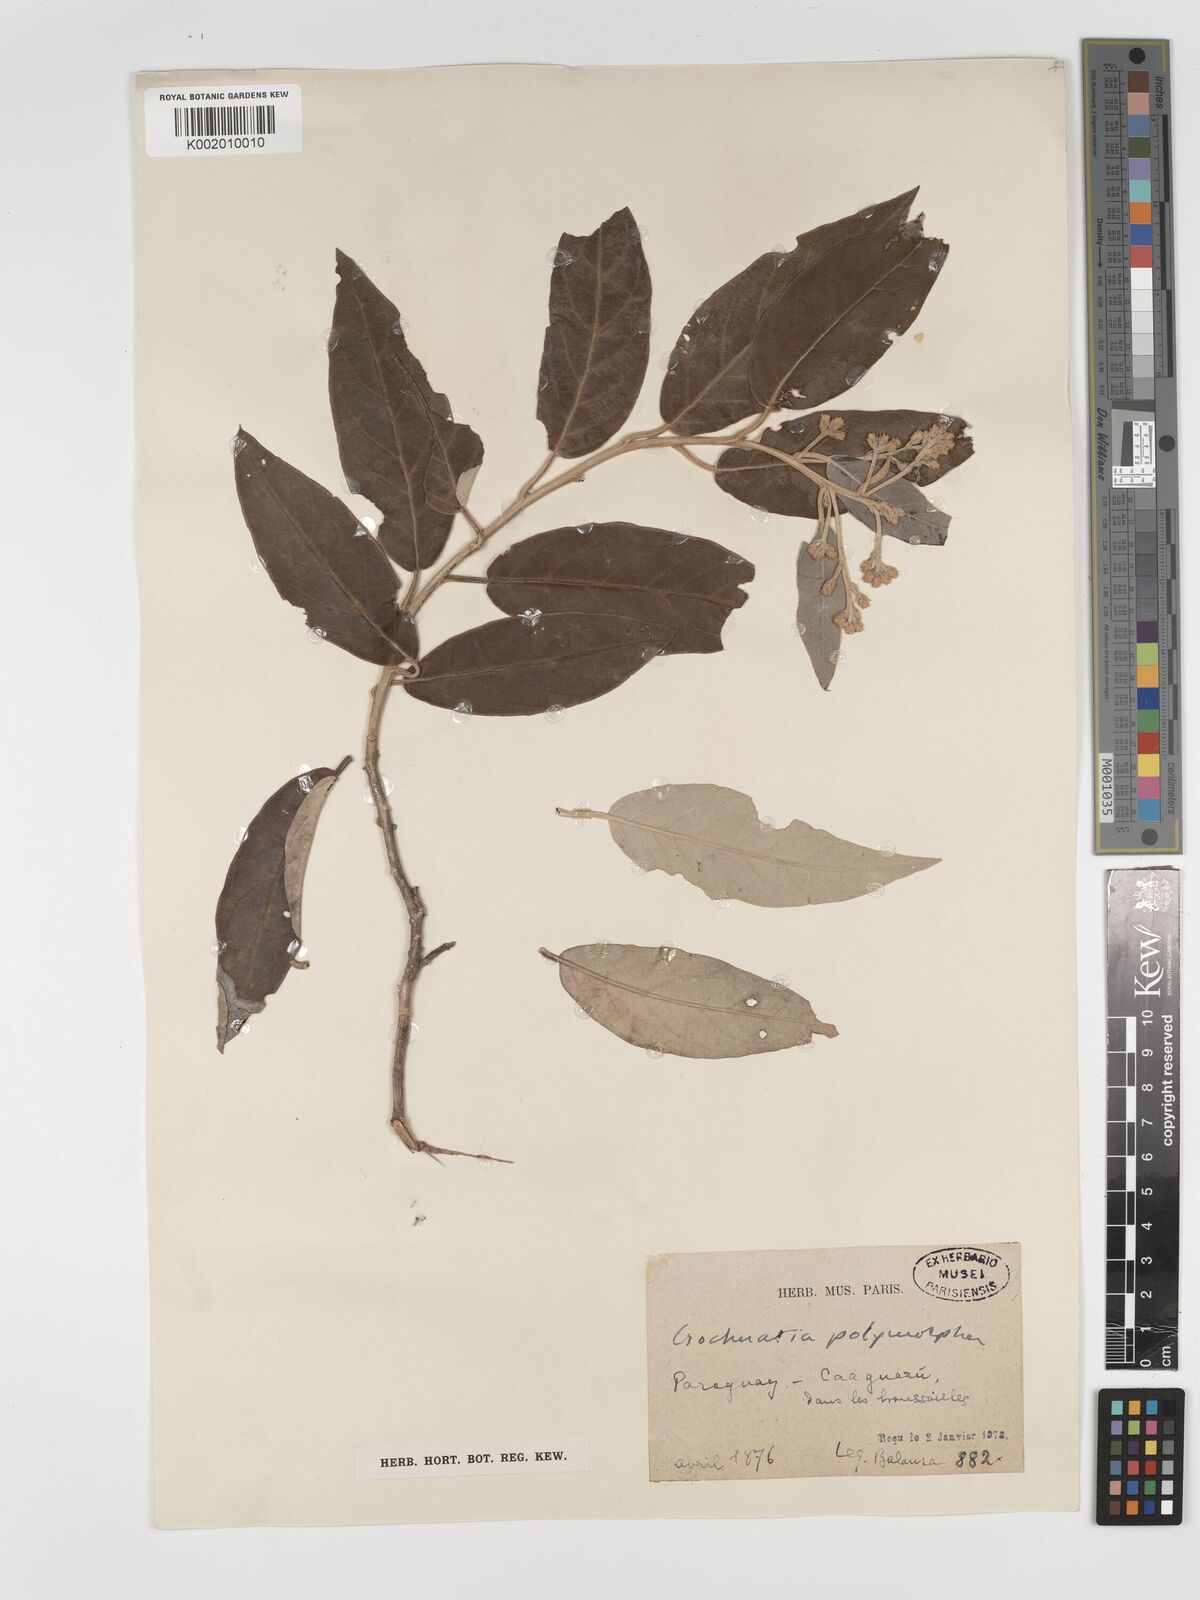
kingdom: Plantae
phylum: Tracheophyta
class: Magnoliopsida
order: Asterales
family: Asteraceae
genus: Moquiniastrum
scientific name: Moquiniastrum polymorphum
